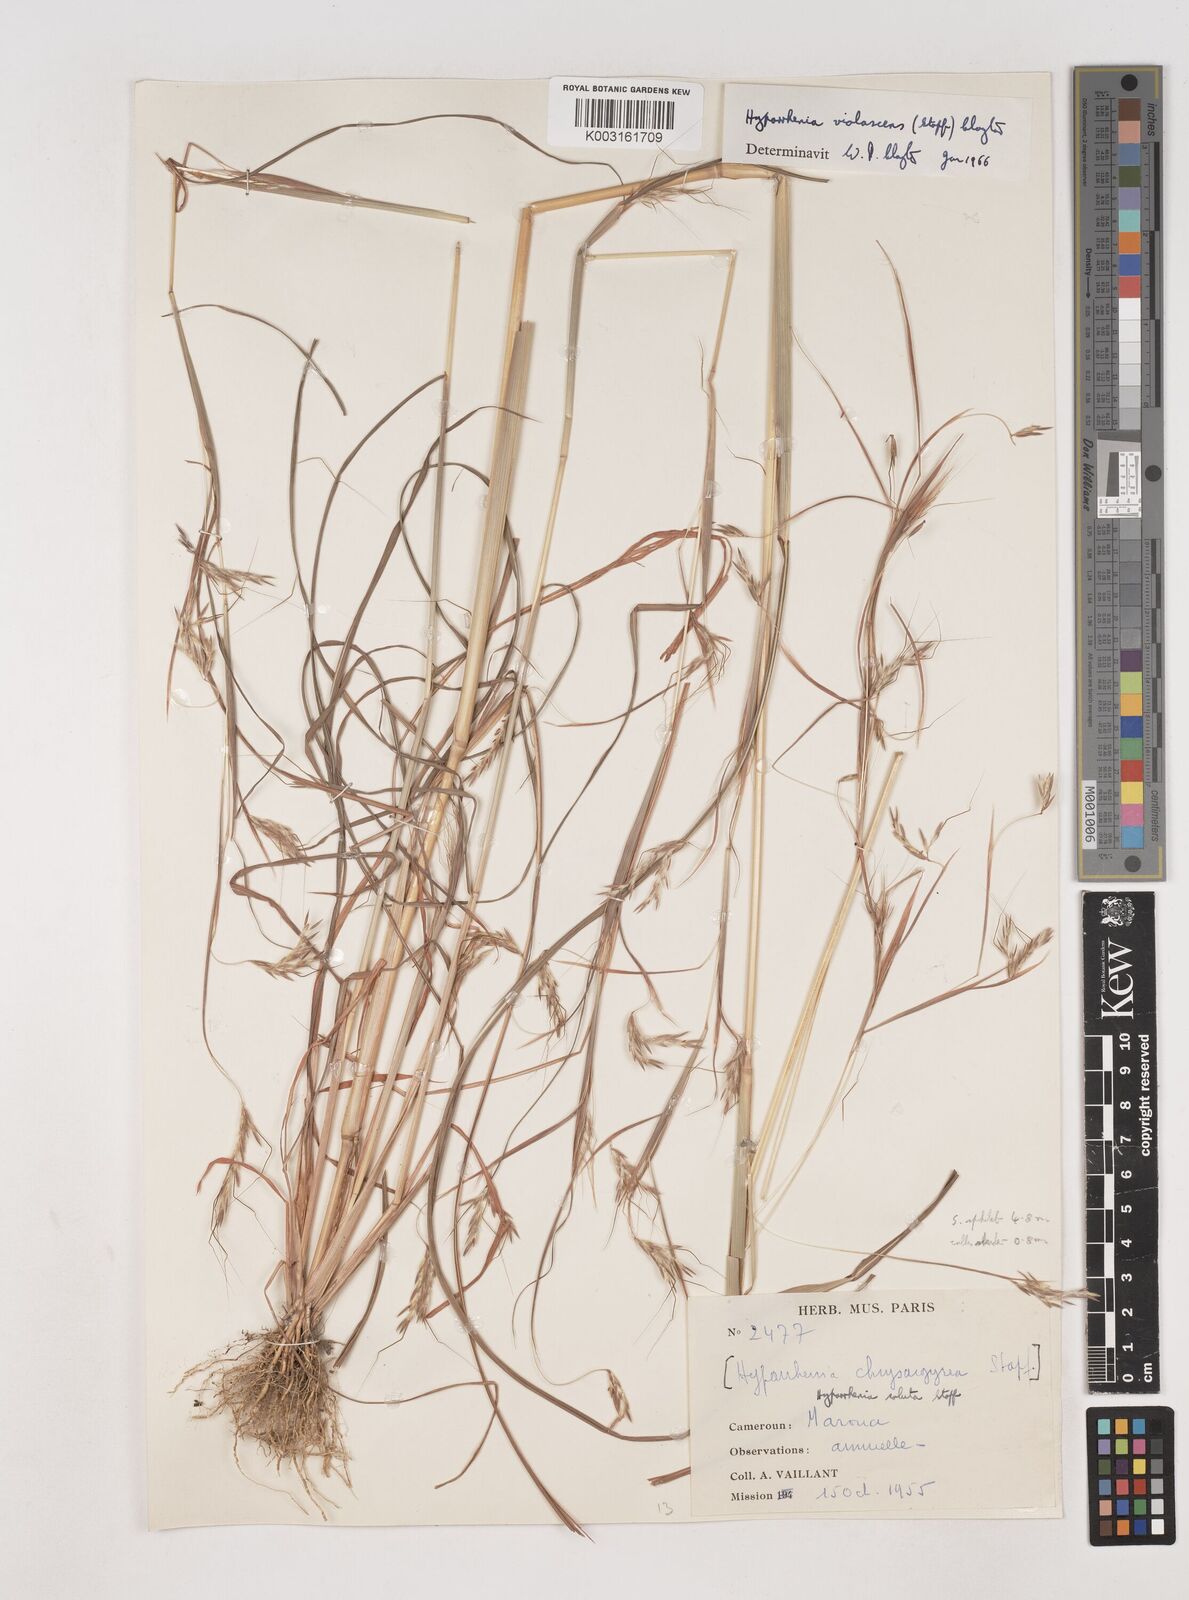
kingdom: Plantae
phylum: Tracheophyta
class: Liliopsida
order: Poales
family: Poaceae
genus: Hyparrhenia
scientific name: Hyparrhenia violascens
